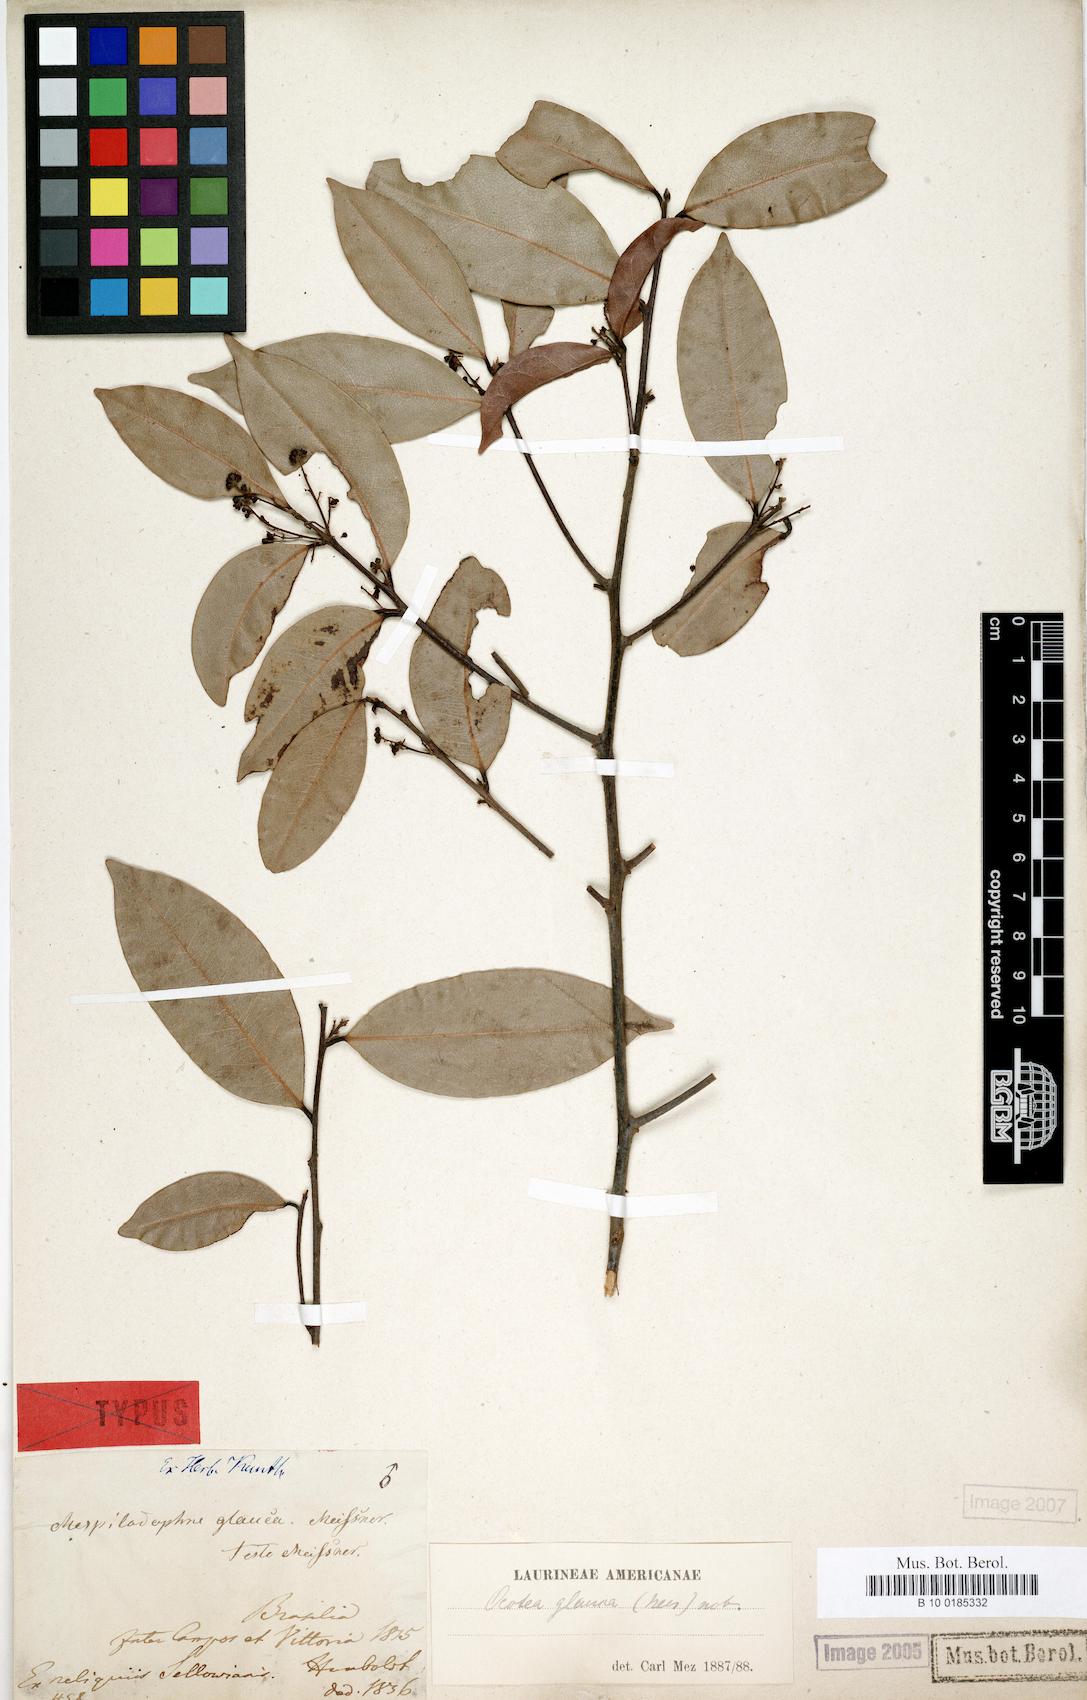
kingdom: Plantae
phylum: Tracheophyta
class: Magnoliopsida
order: Laurales
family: Lauraceae
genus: Mespilodaphne
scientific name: Mespilodaphne glauca
